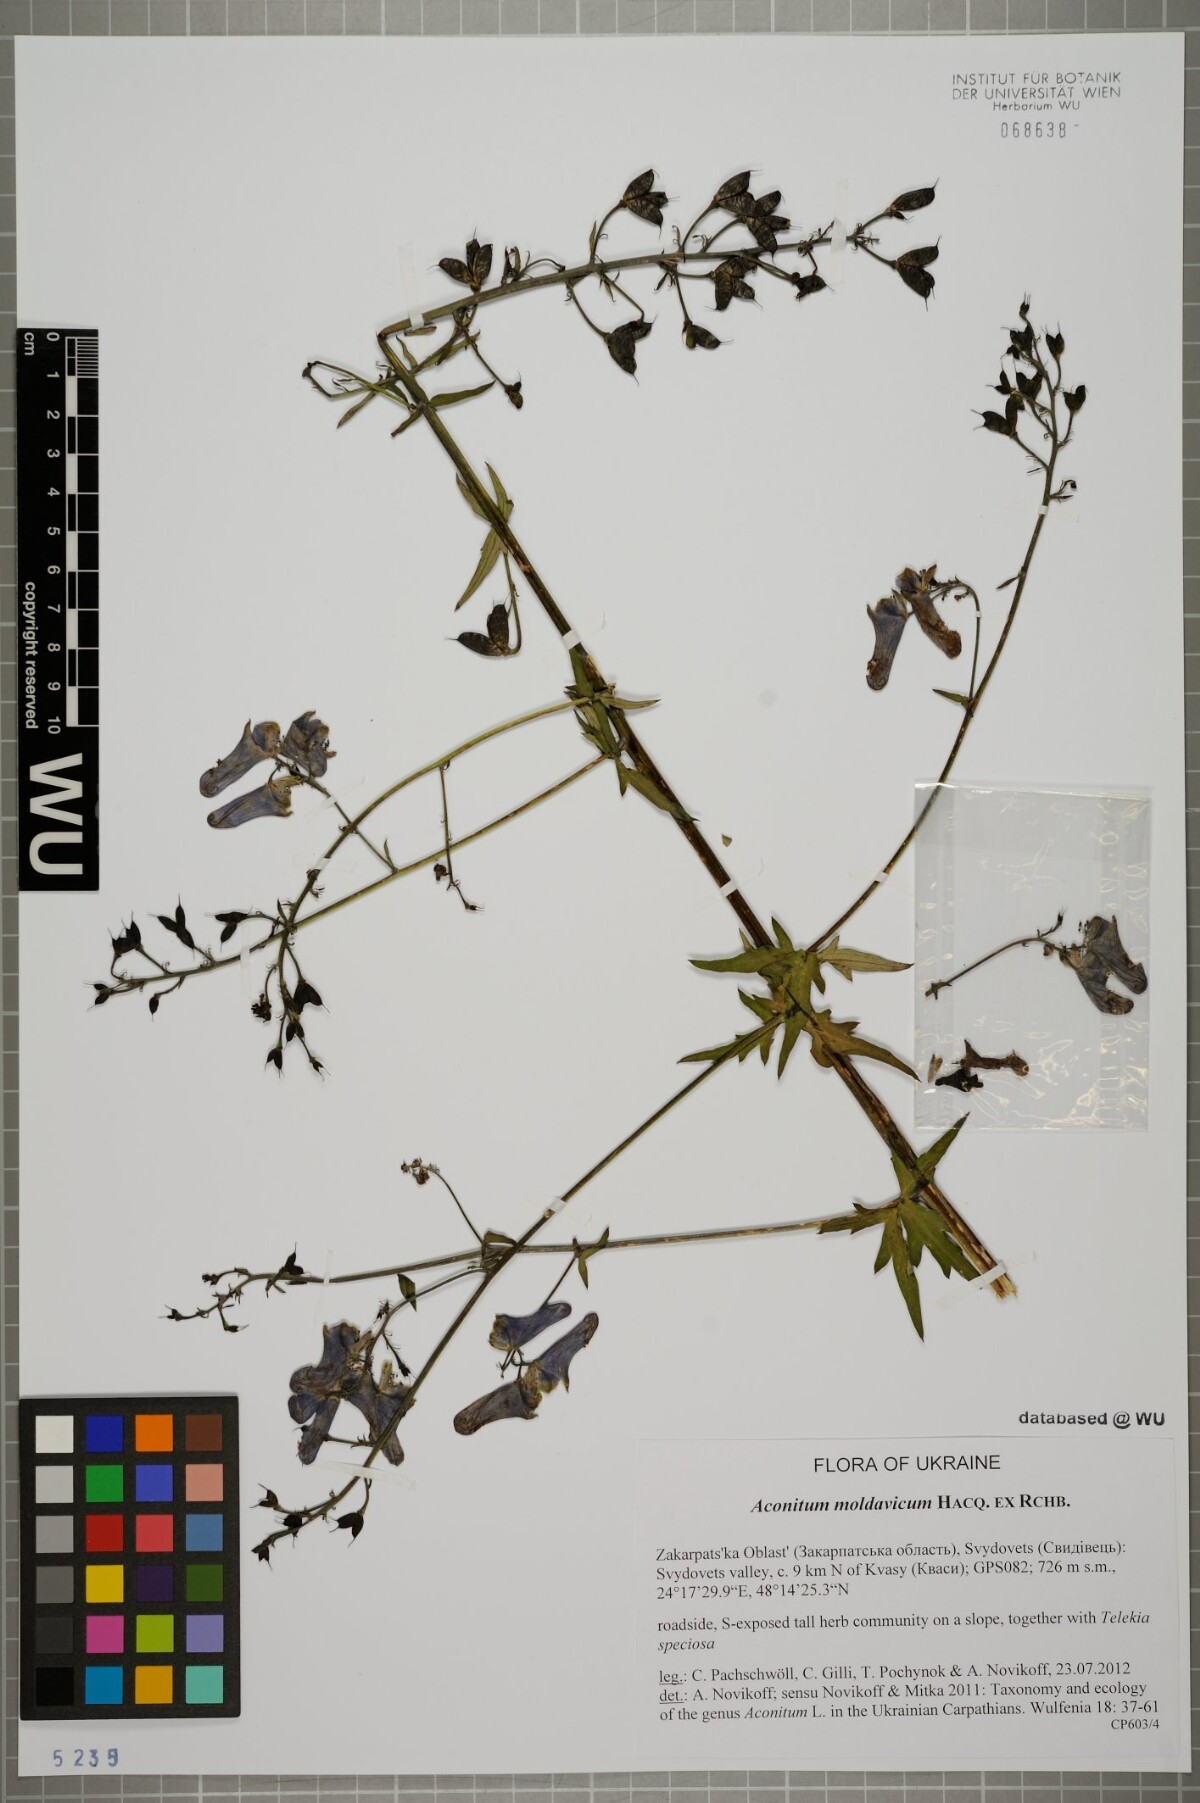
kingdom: Plantae
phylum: Tracheophyta
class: Magnoliopsida
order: Ranunculales
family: Ranunculaceae
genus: Aconitum
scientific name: Aconitum lycoctonum
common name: Wolf's-bane
